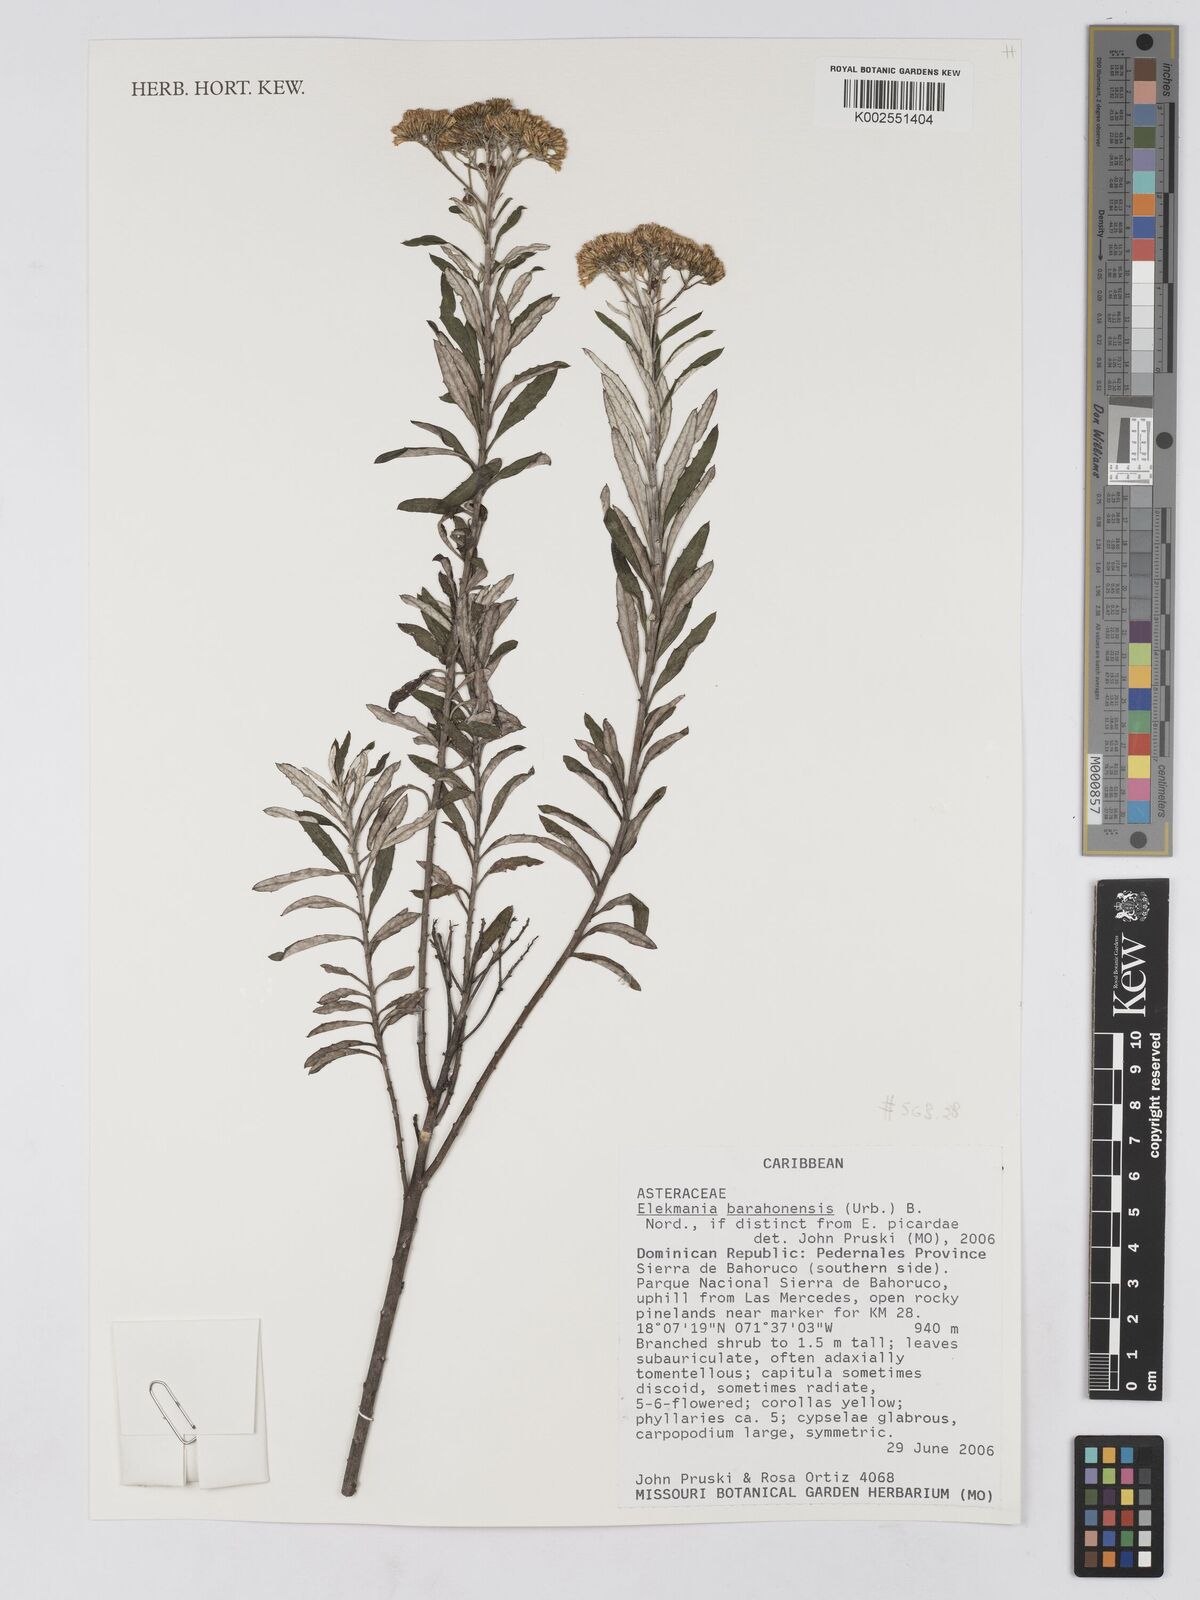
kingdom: Plantae
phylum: Tracheophyta
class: Magnoliopsida
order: Asterales
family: Asteraceae
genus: Elekmania
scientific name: Elekmania barahonensis
